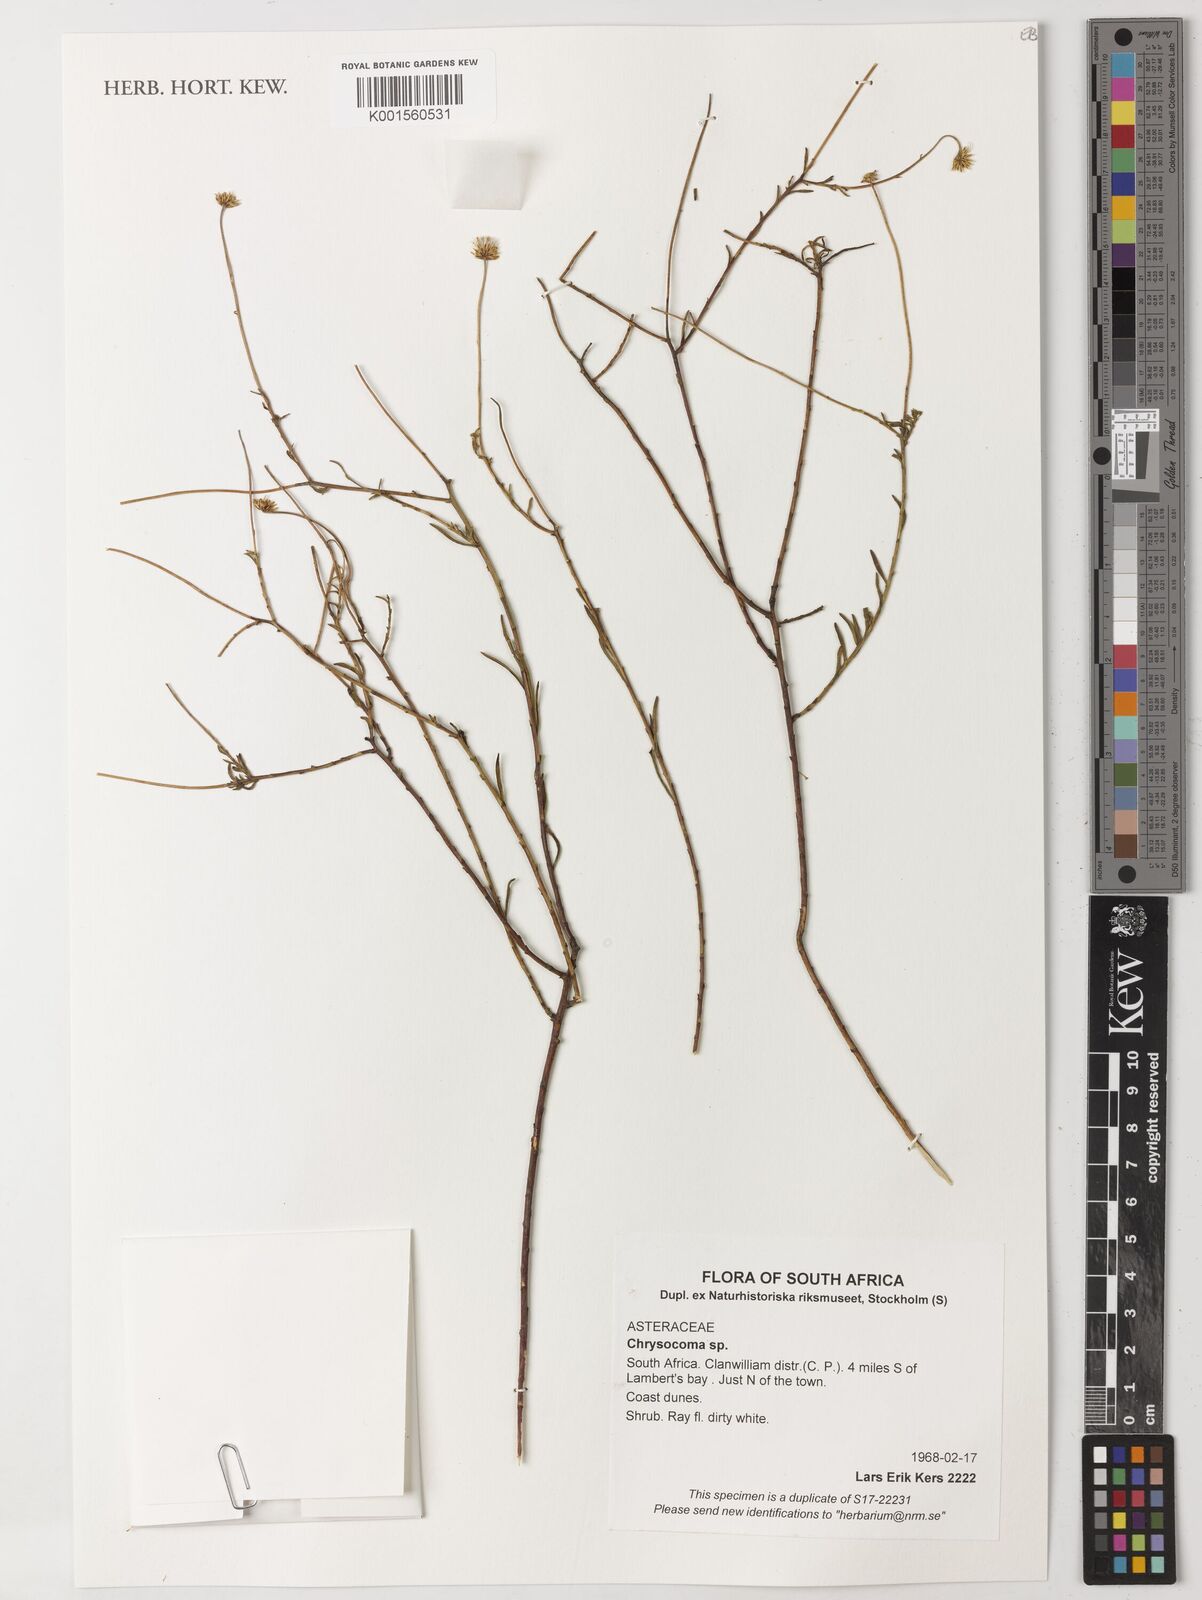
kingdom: Plantae
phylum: Tracheophyta
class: Magnoliopsida
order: Asterales
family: Asteraceae
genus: Chrysocoma
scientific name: Chrysocoma
